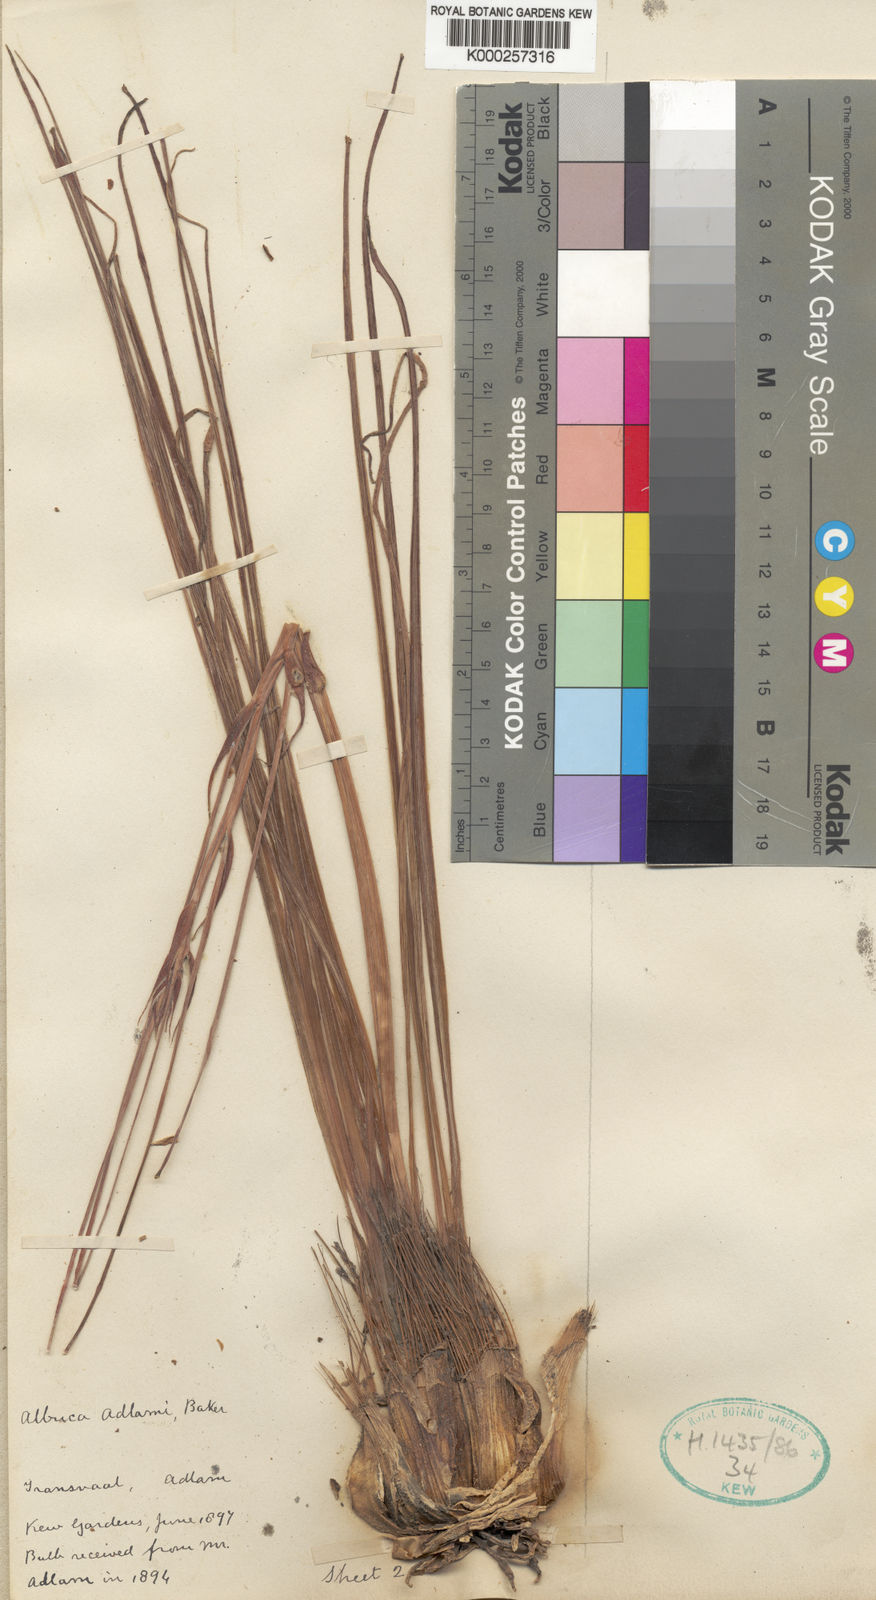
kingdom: Plantae
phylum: Tracheophyta
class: Liliopsida
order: Asparagales
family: Asparagaceae
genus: Albuca
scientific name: Albuca adlami
